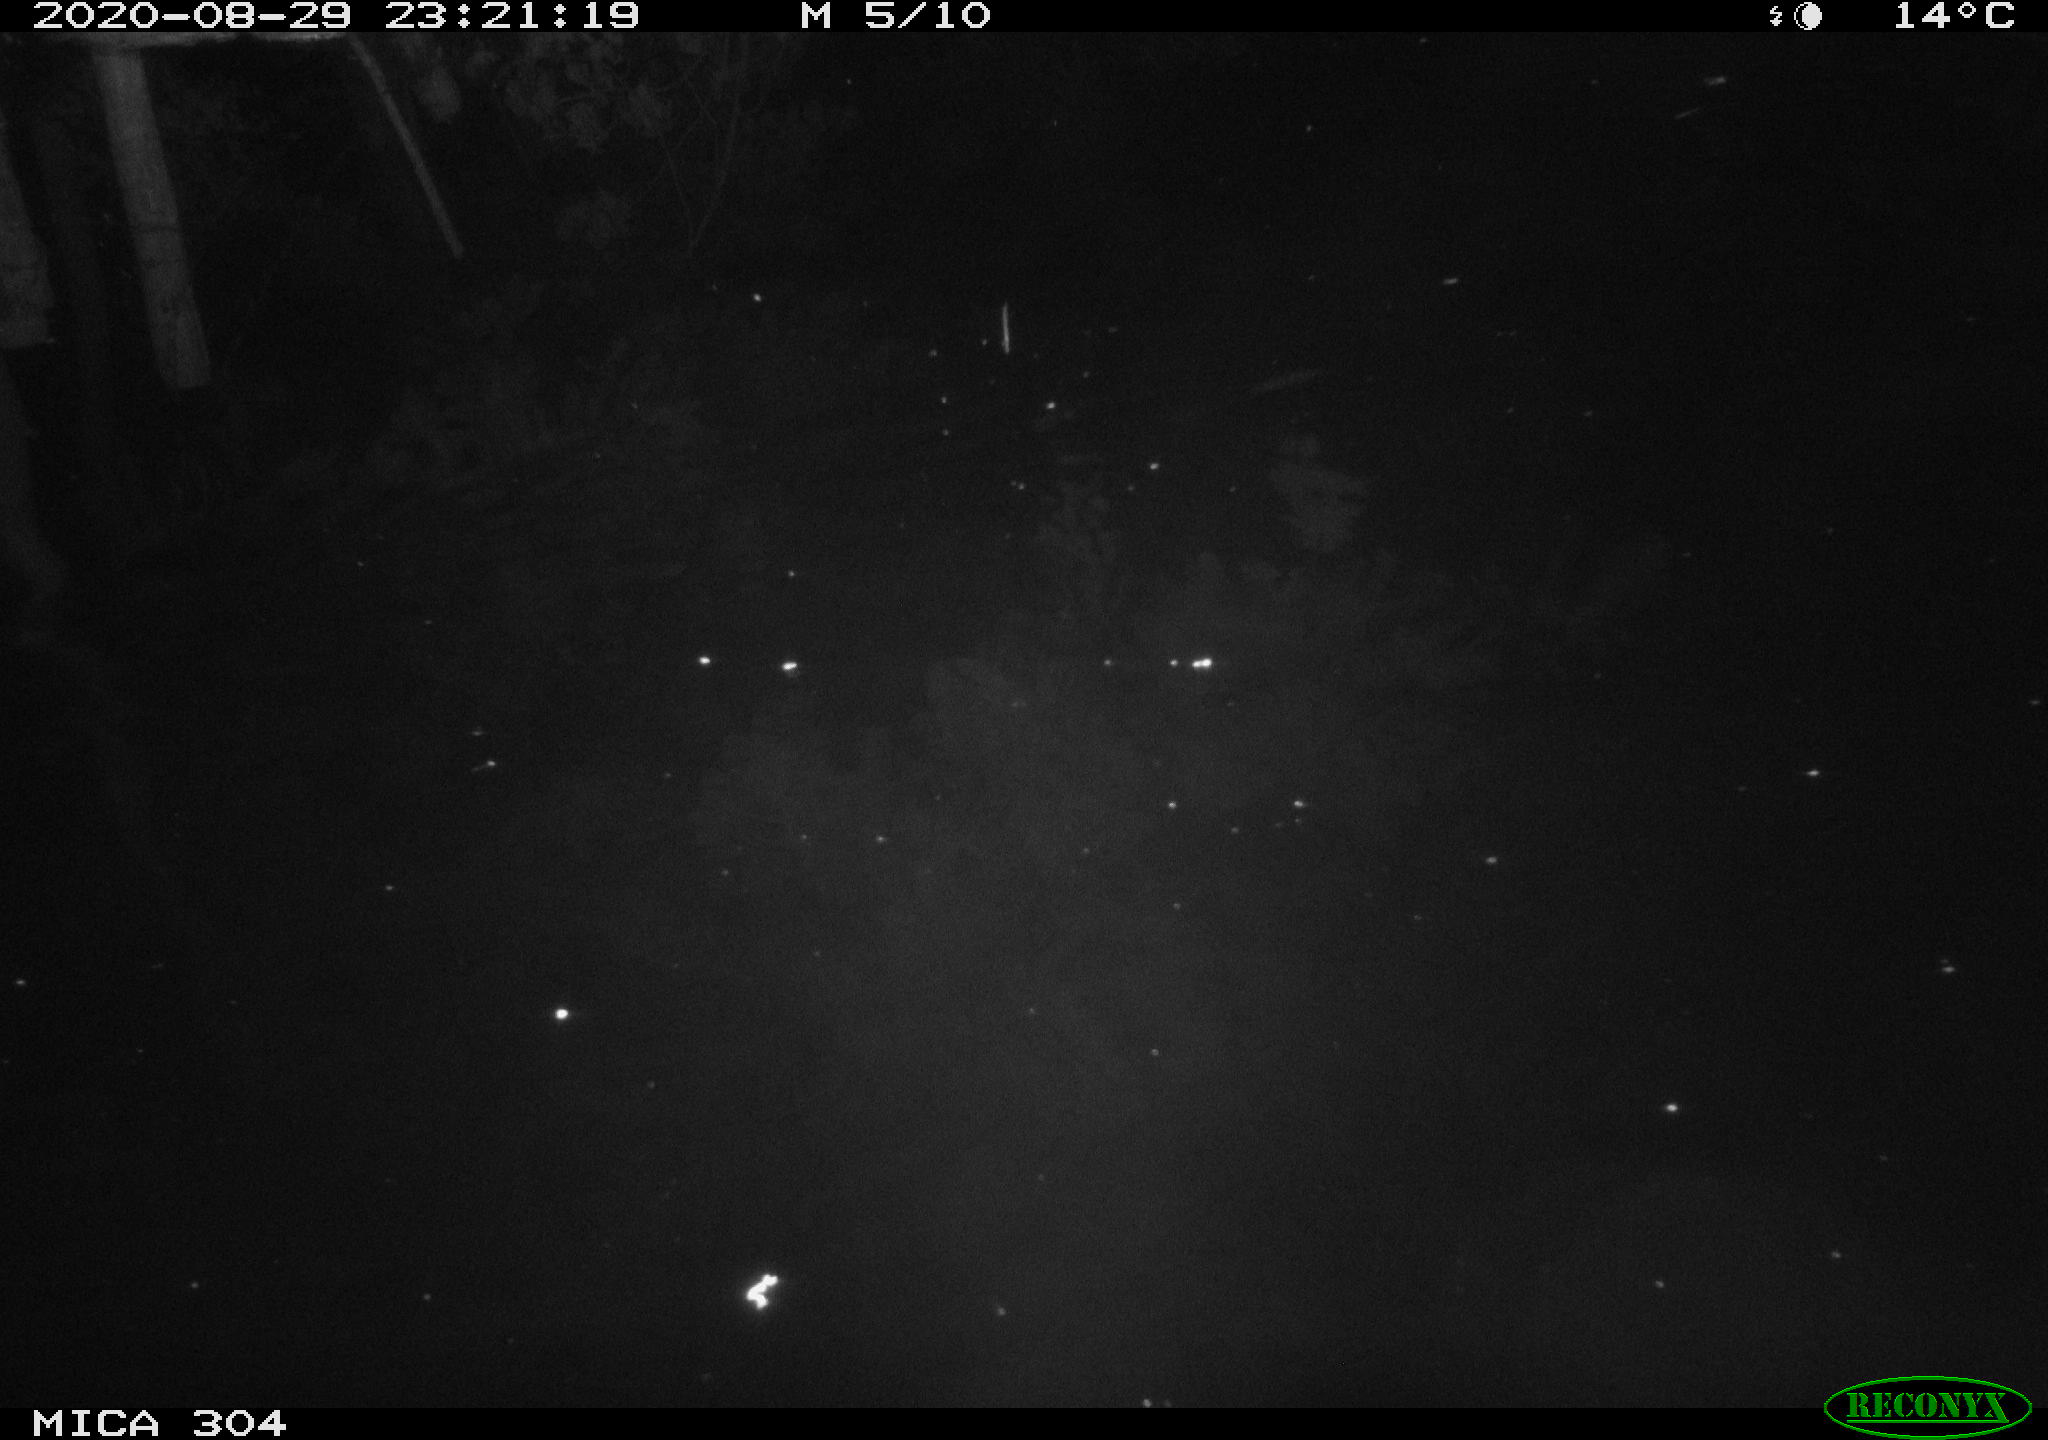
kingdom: Animalia
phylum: Chordata
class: Mammalia
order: Rodentia
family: Cricetidae
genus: Ondatra
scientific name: Ondatra zibethicus
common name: Muskrat
